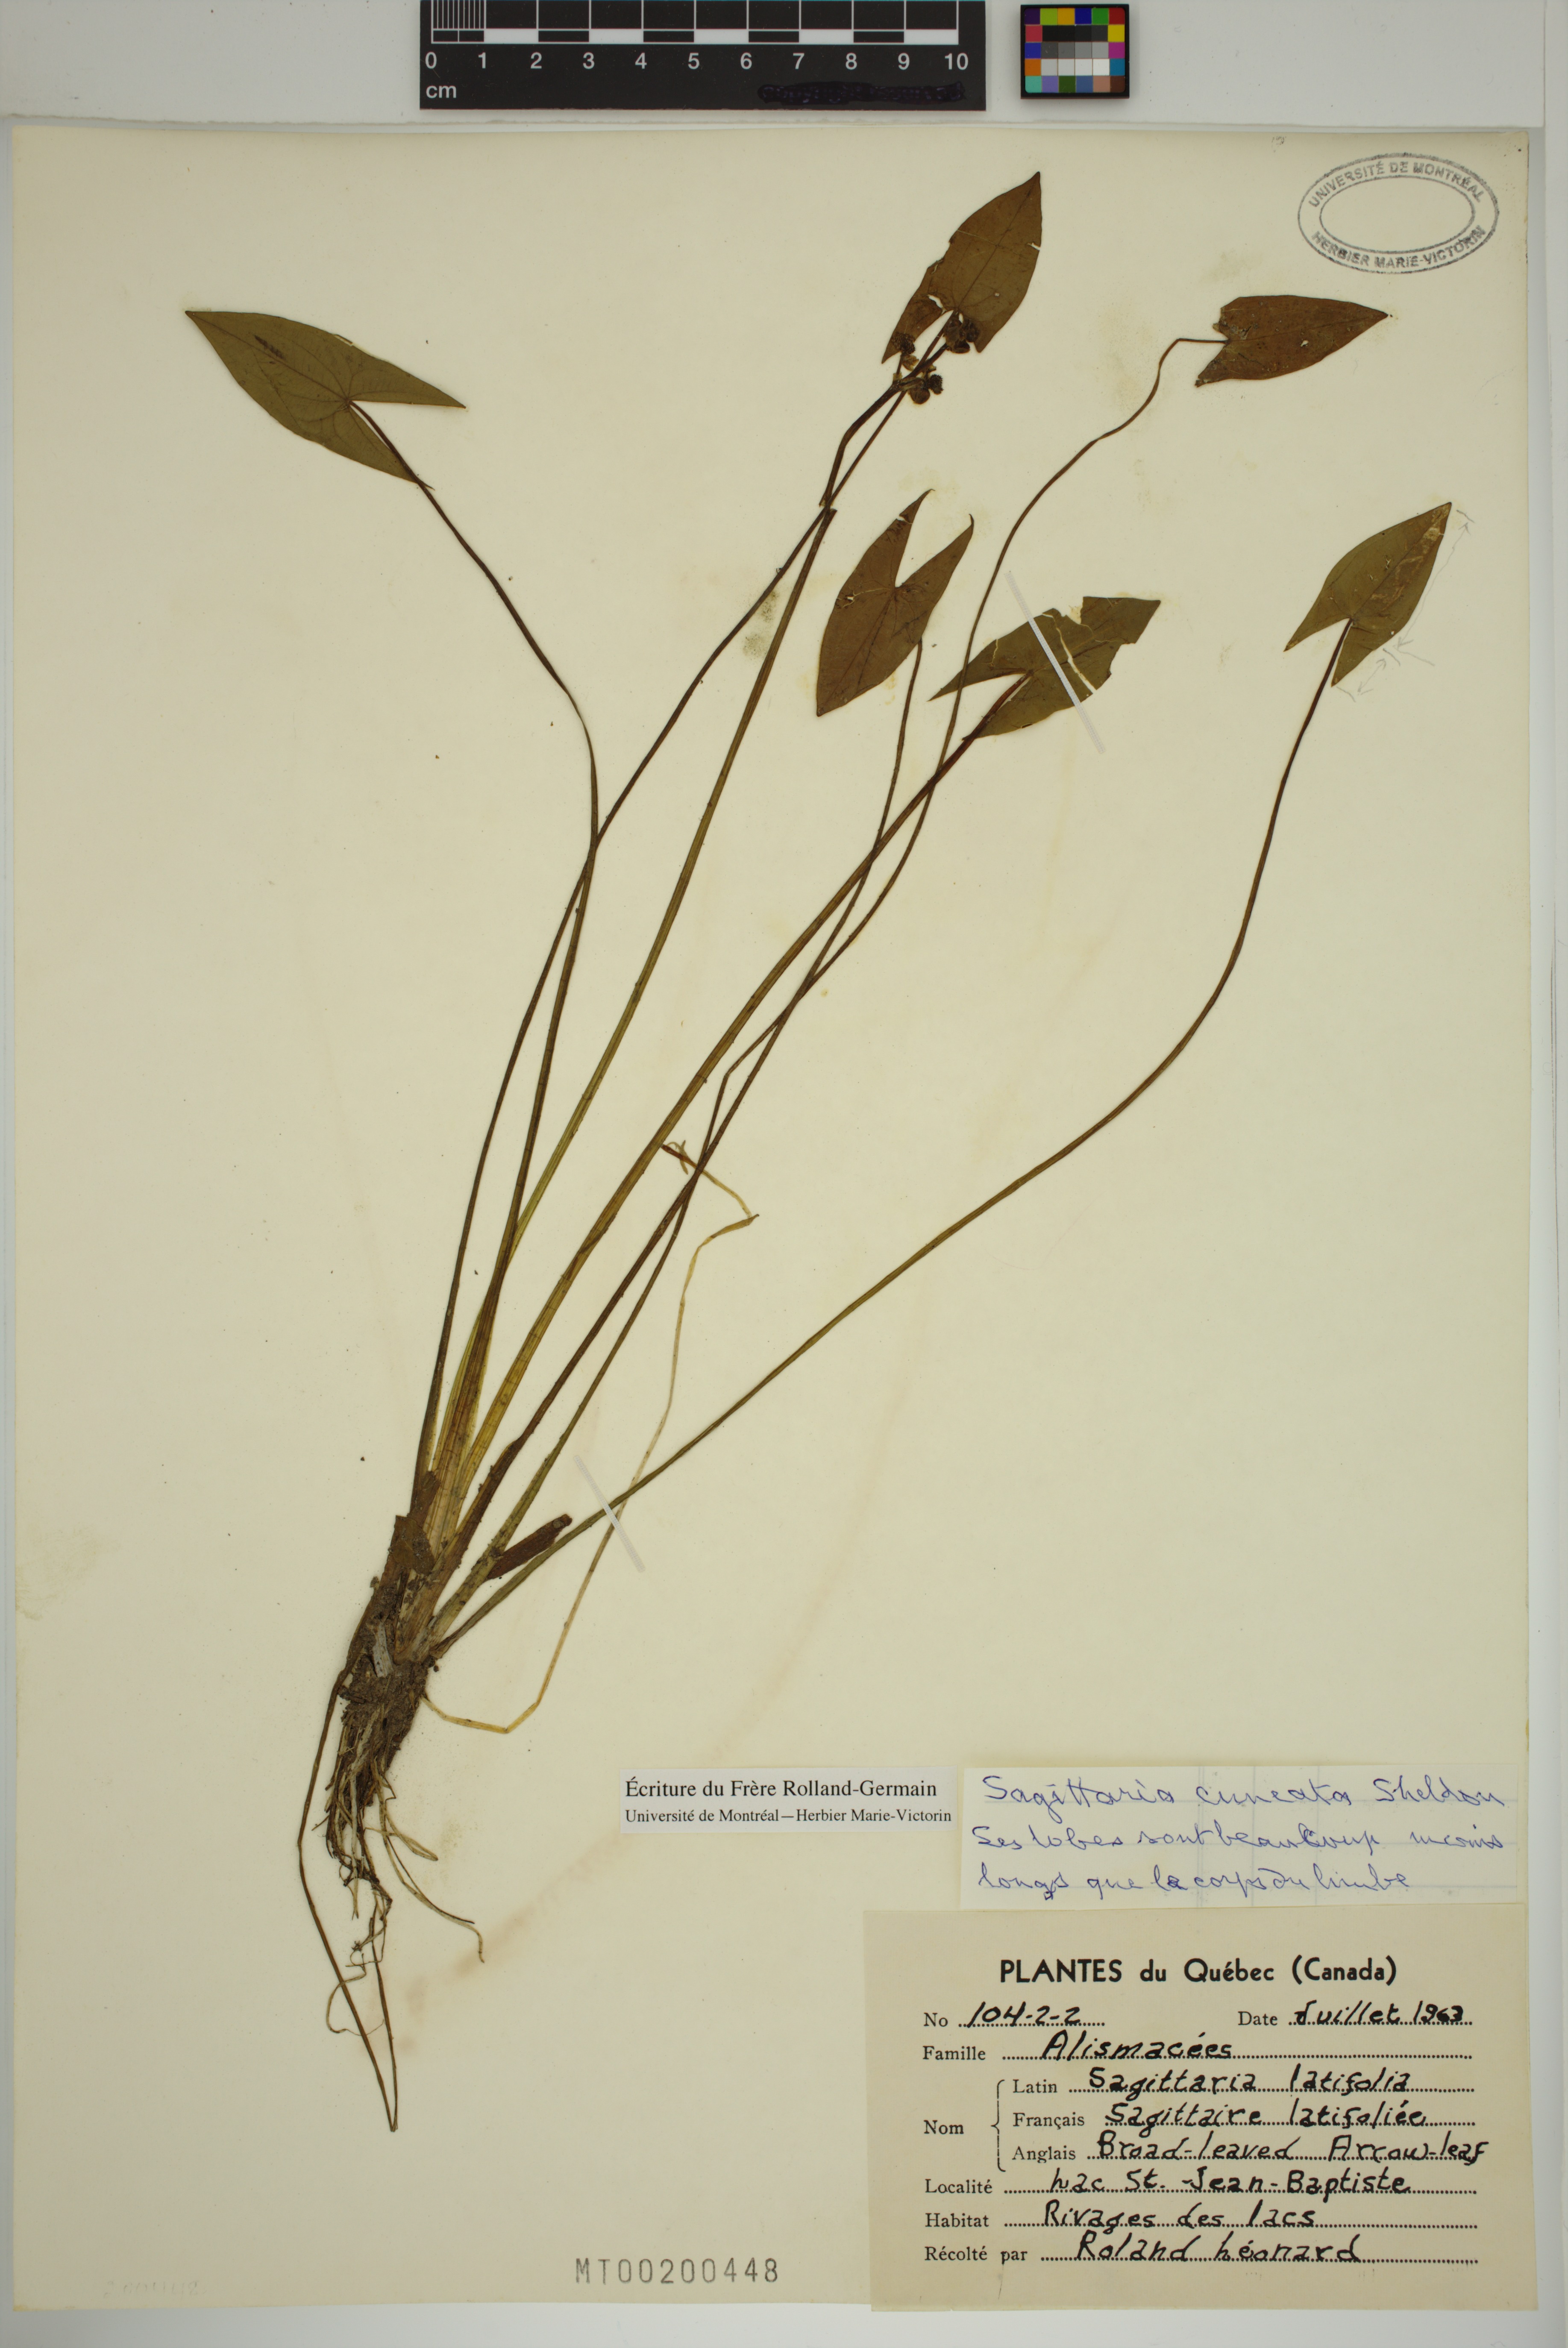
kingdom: Plantae
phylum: Tracheophyta
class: Liliopsida
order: Alismatales
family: Alismataceae
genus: Sagittaria
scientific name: Sagittaria cuneata
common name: Northern arrowhead
